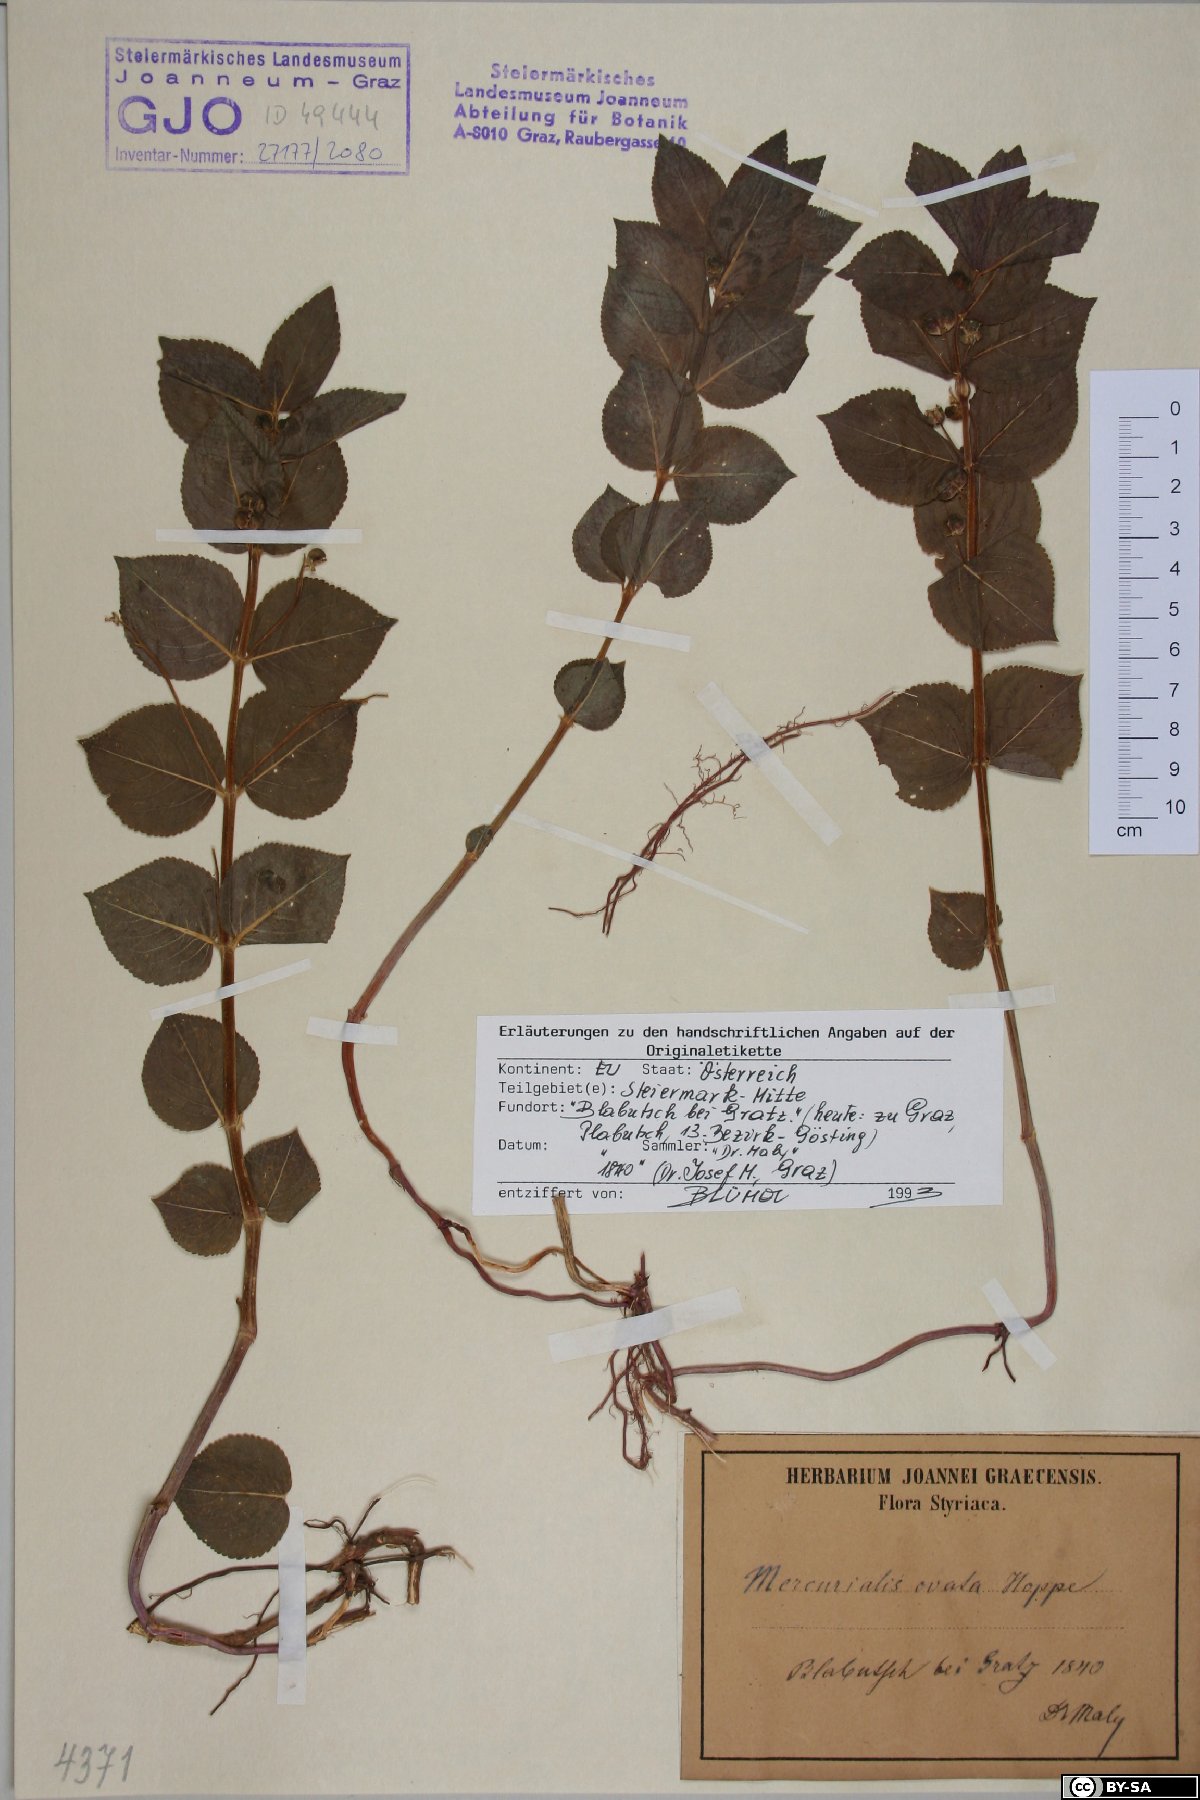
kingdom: Plantae
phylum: Tracheophyta
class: Magnoliopsida
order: Malpighiales
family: Euphorbiaceae
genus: Mercurialis
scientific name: Mercurialis ovata
